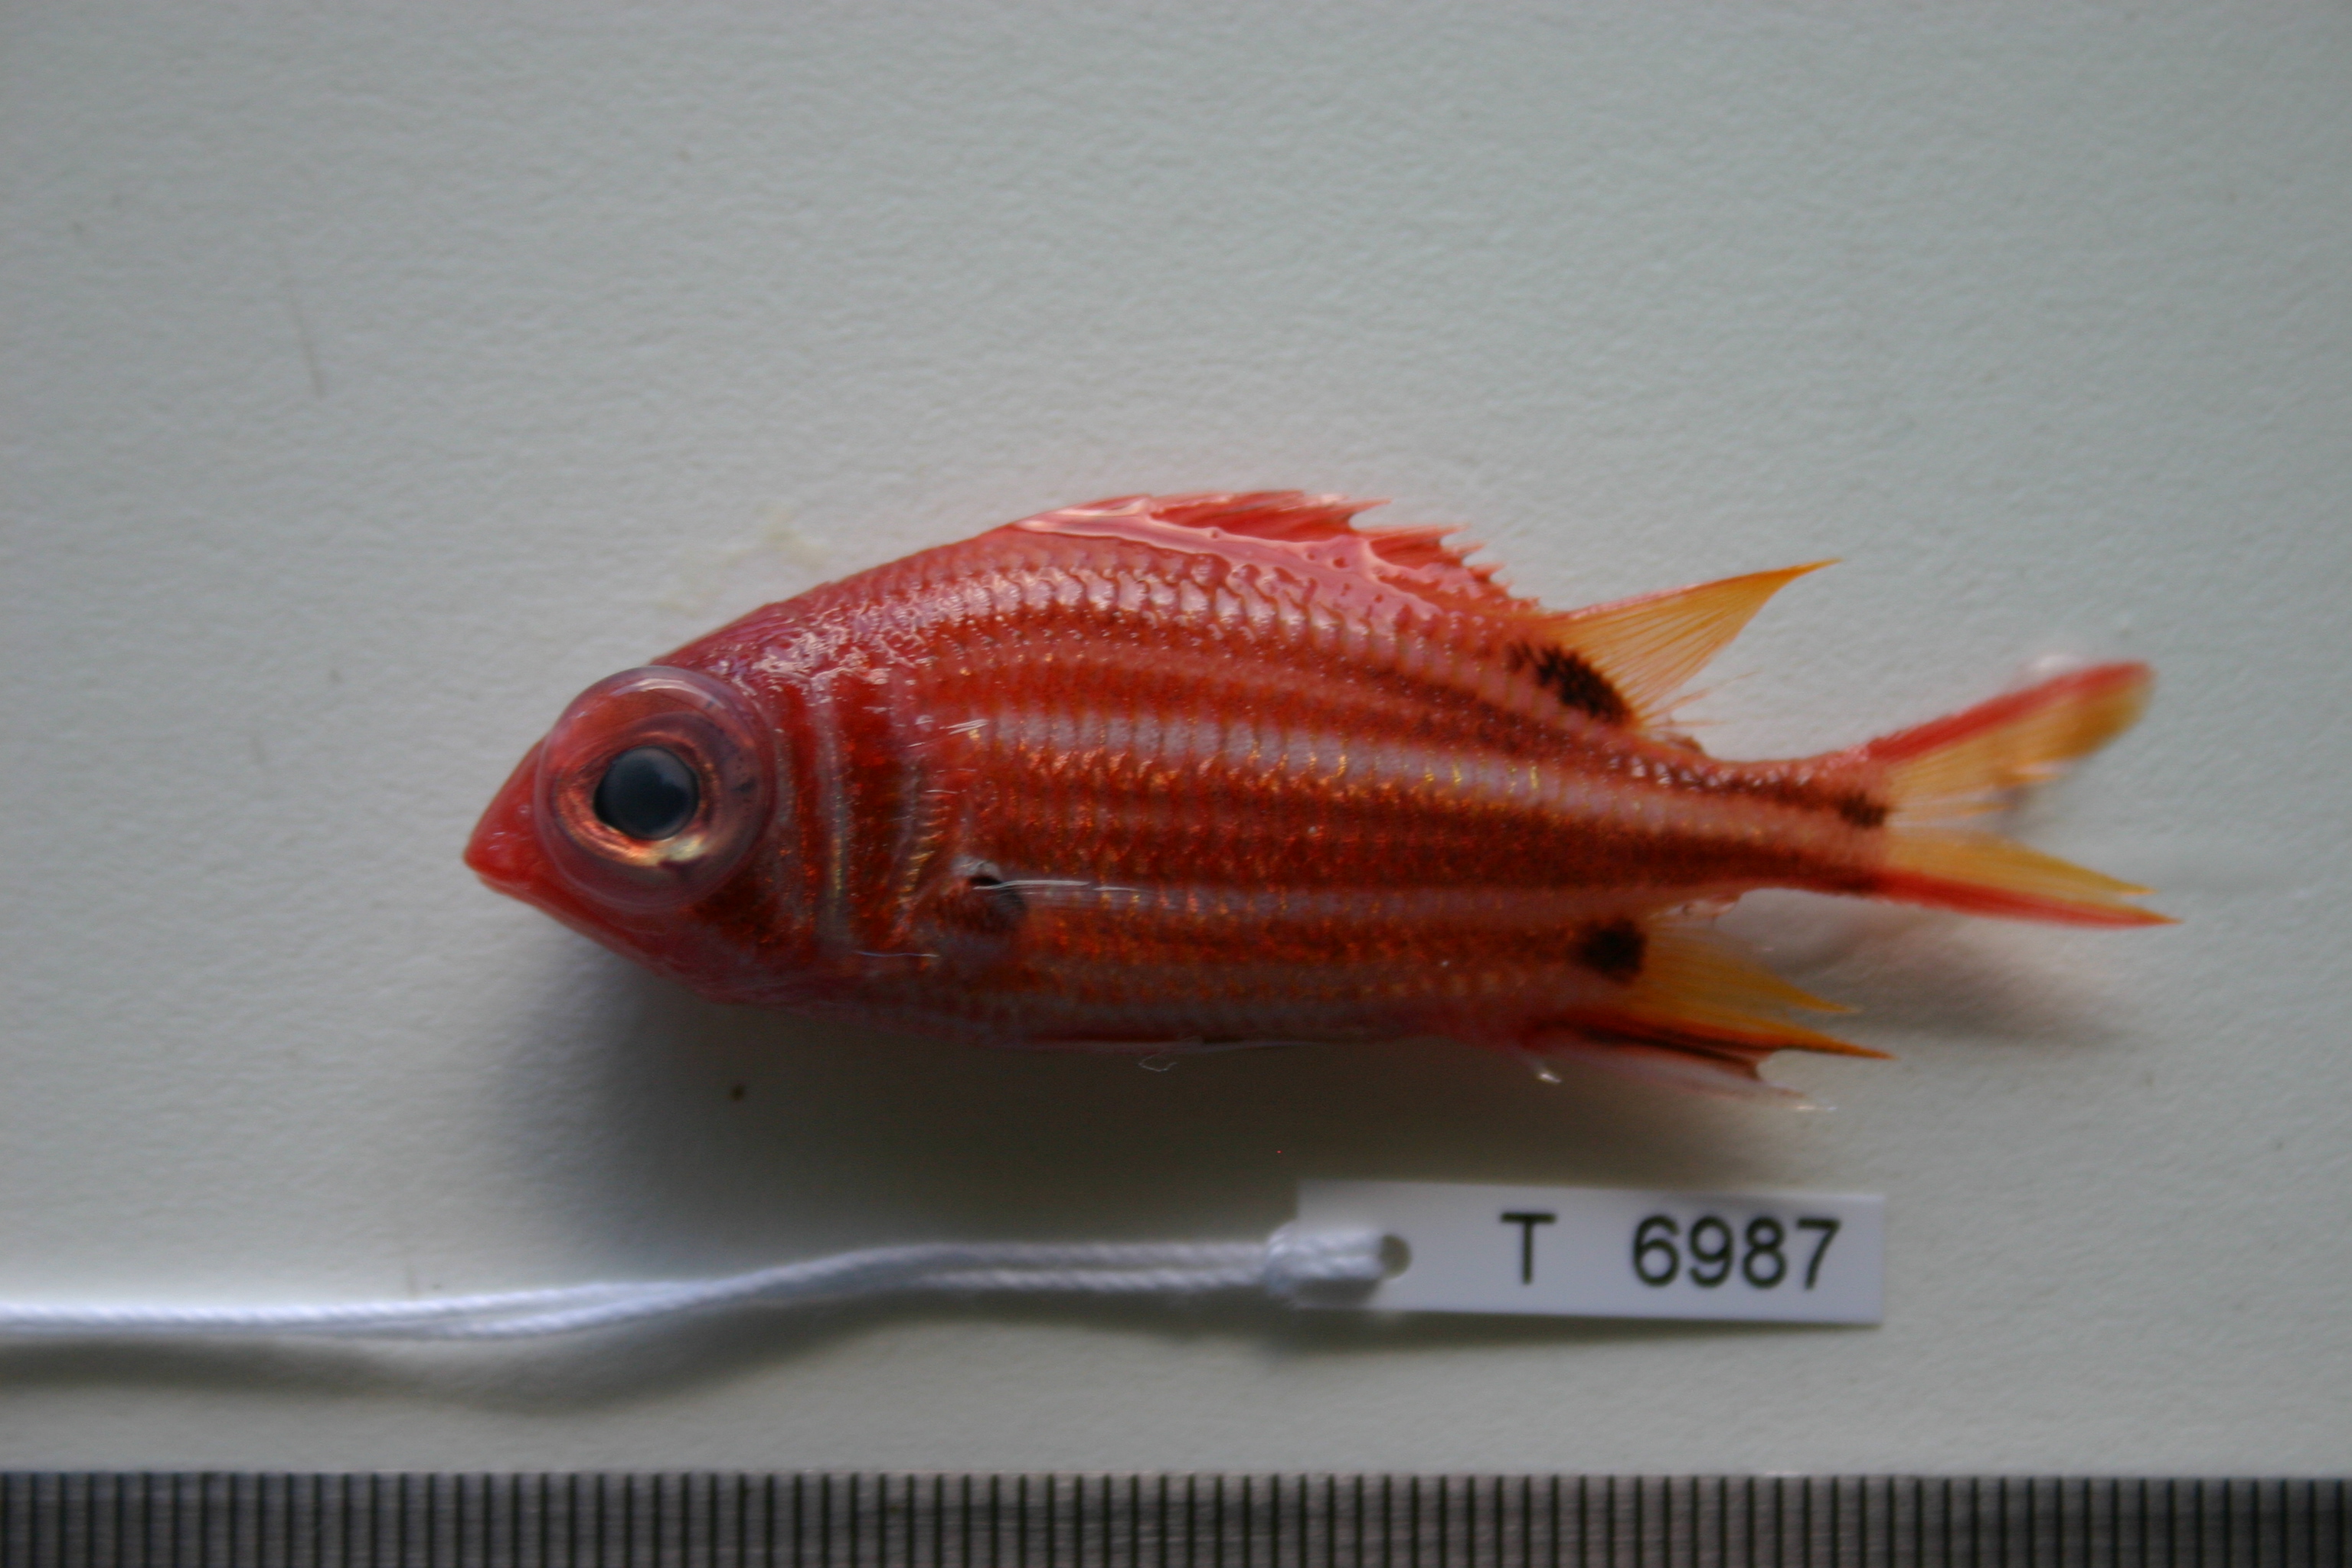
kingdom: Animalia
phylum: Chordata
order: Beryciformes
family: Holocentridae
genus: Sargocentron
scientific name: Sargocentron melanospilos
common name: Blackblotch squirrelfish
